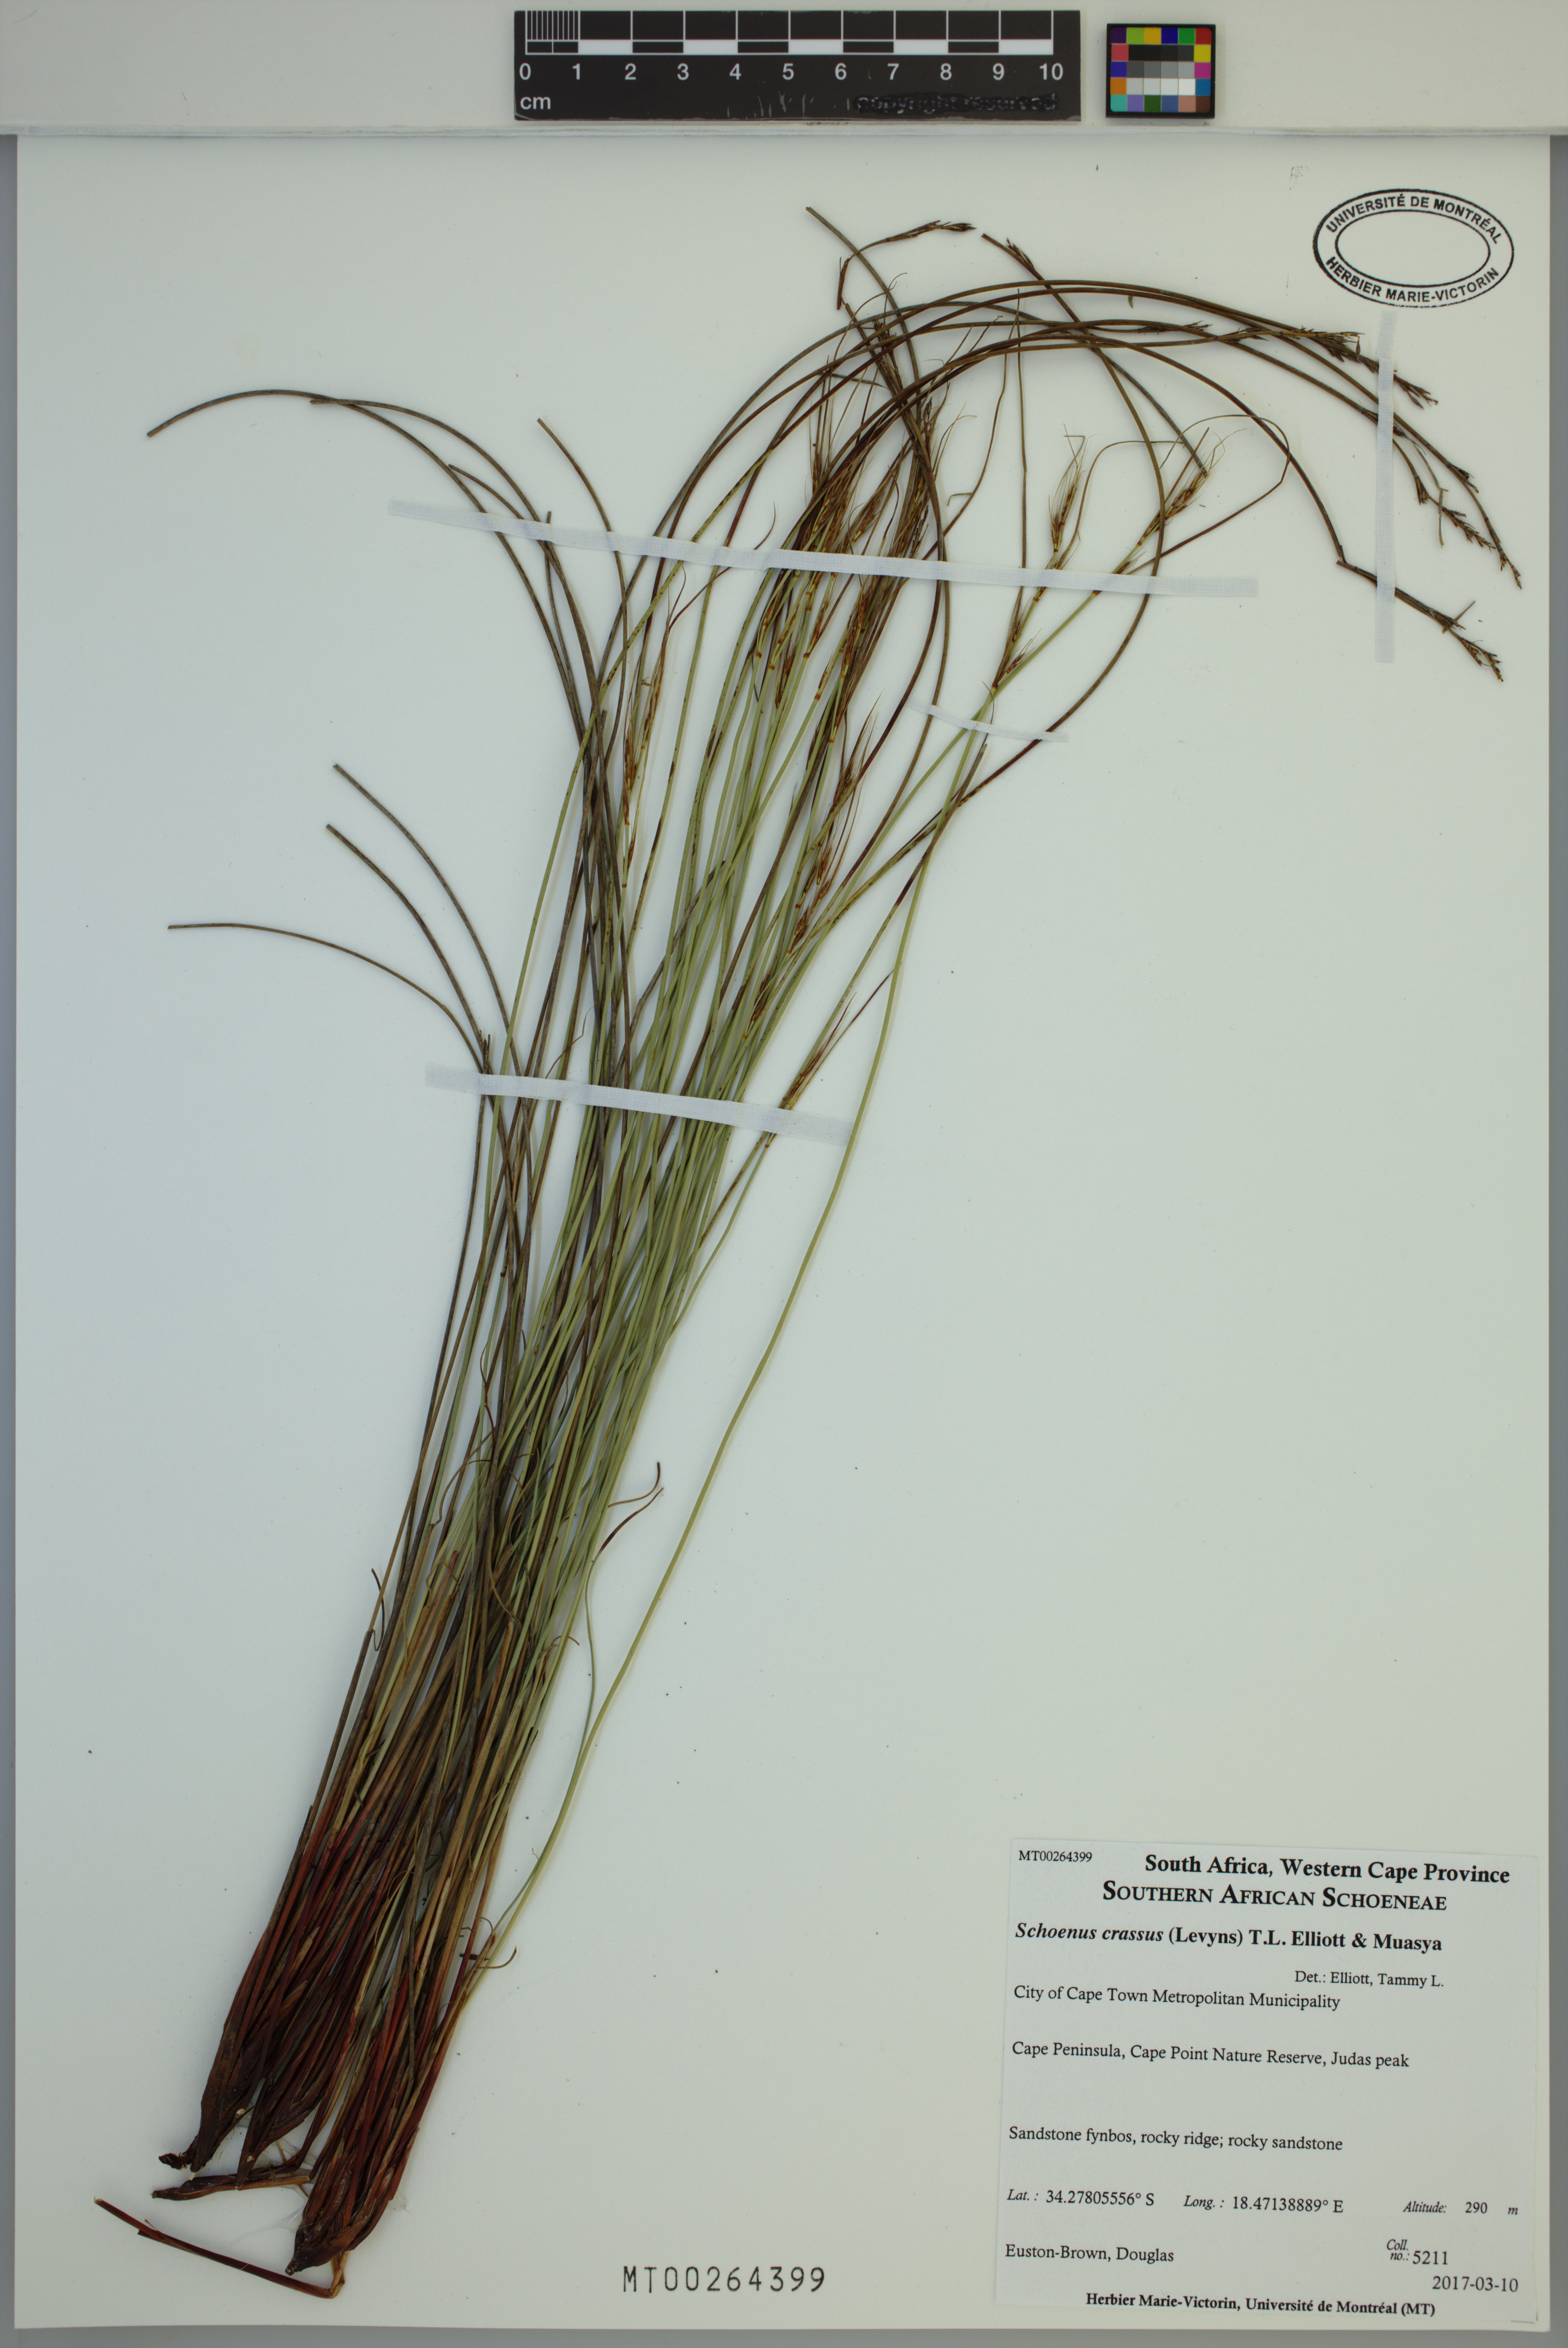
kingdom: Plantae
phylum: Tracheophyta
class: Liliopsida
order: Poales
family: Cyperaceae
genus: Schoenus
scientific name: Schoenus crassus
